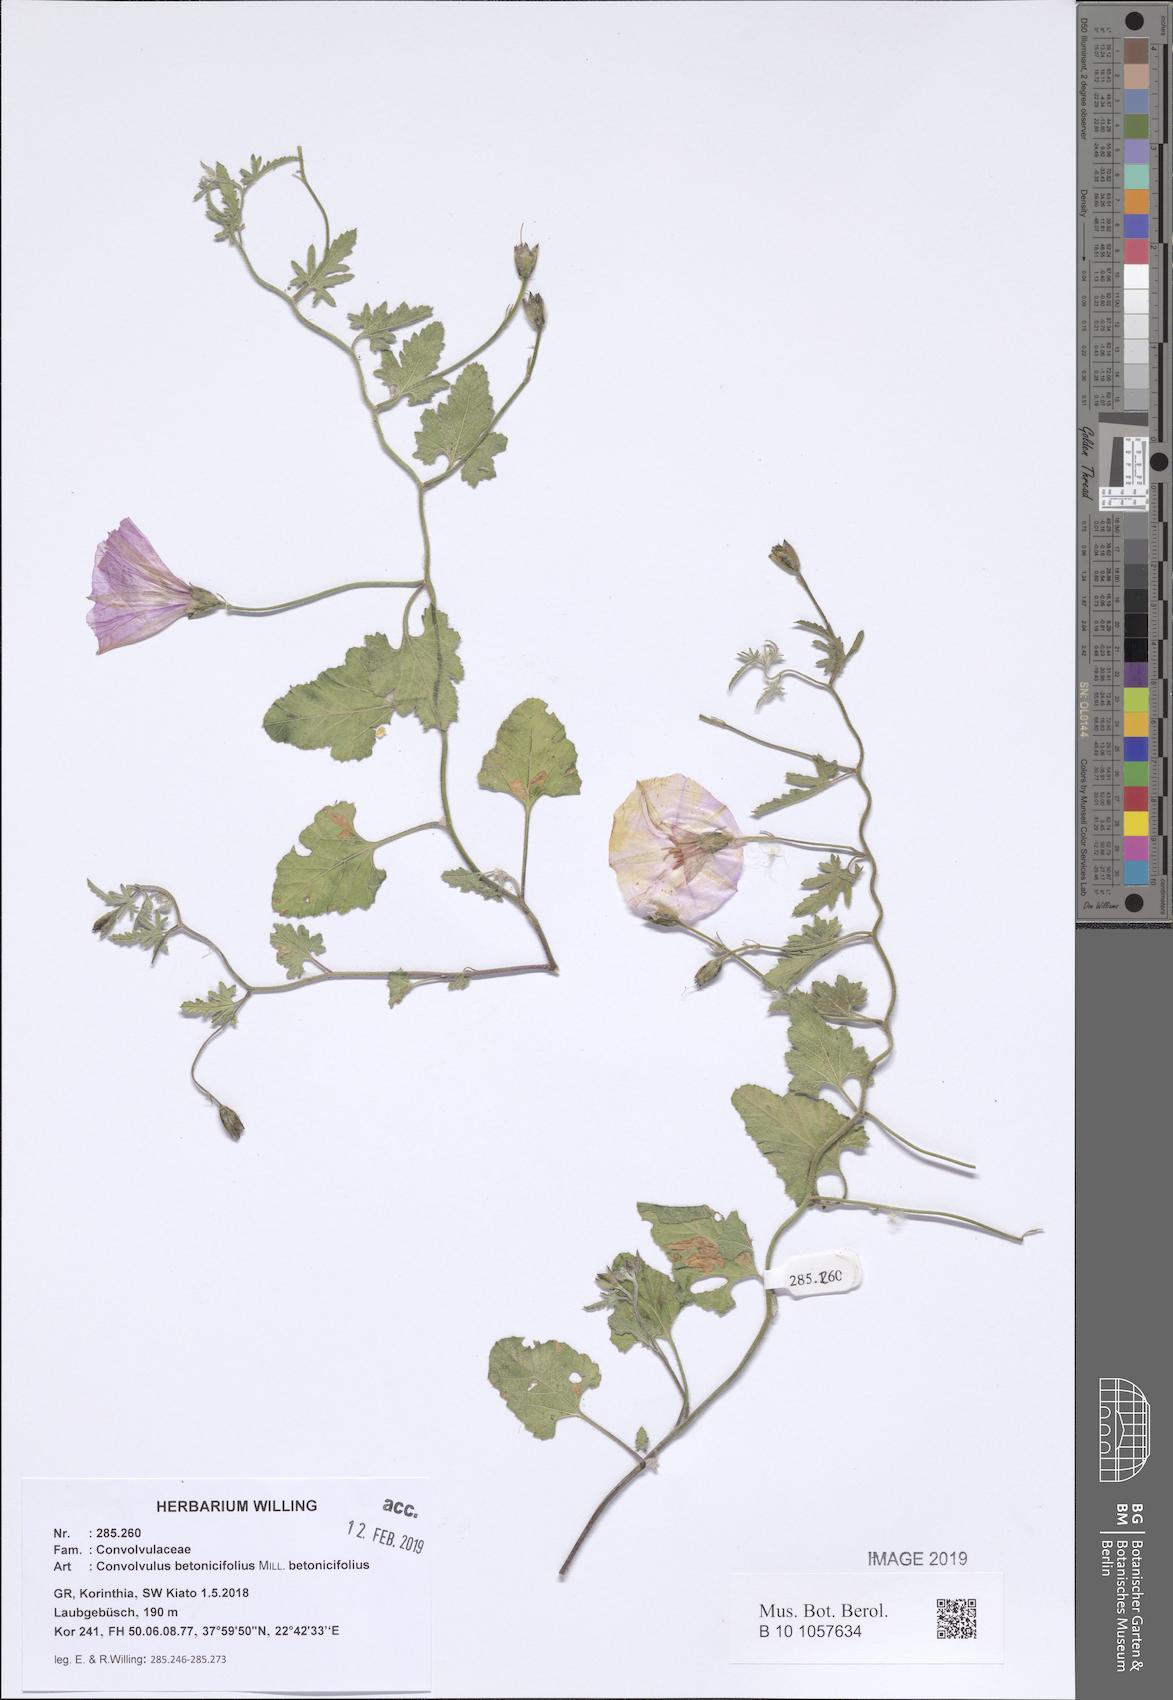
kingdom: Plantae
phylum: Tracheophyta
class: Magnoliopsida
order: Solanales
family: Convolvulaceae
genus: Convolvulus
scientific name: Convolvulus betonicifolius
